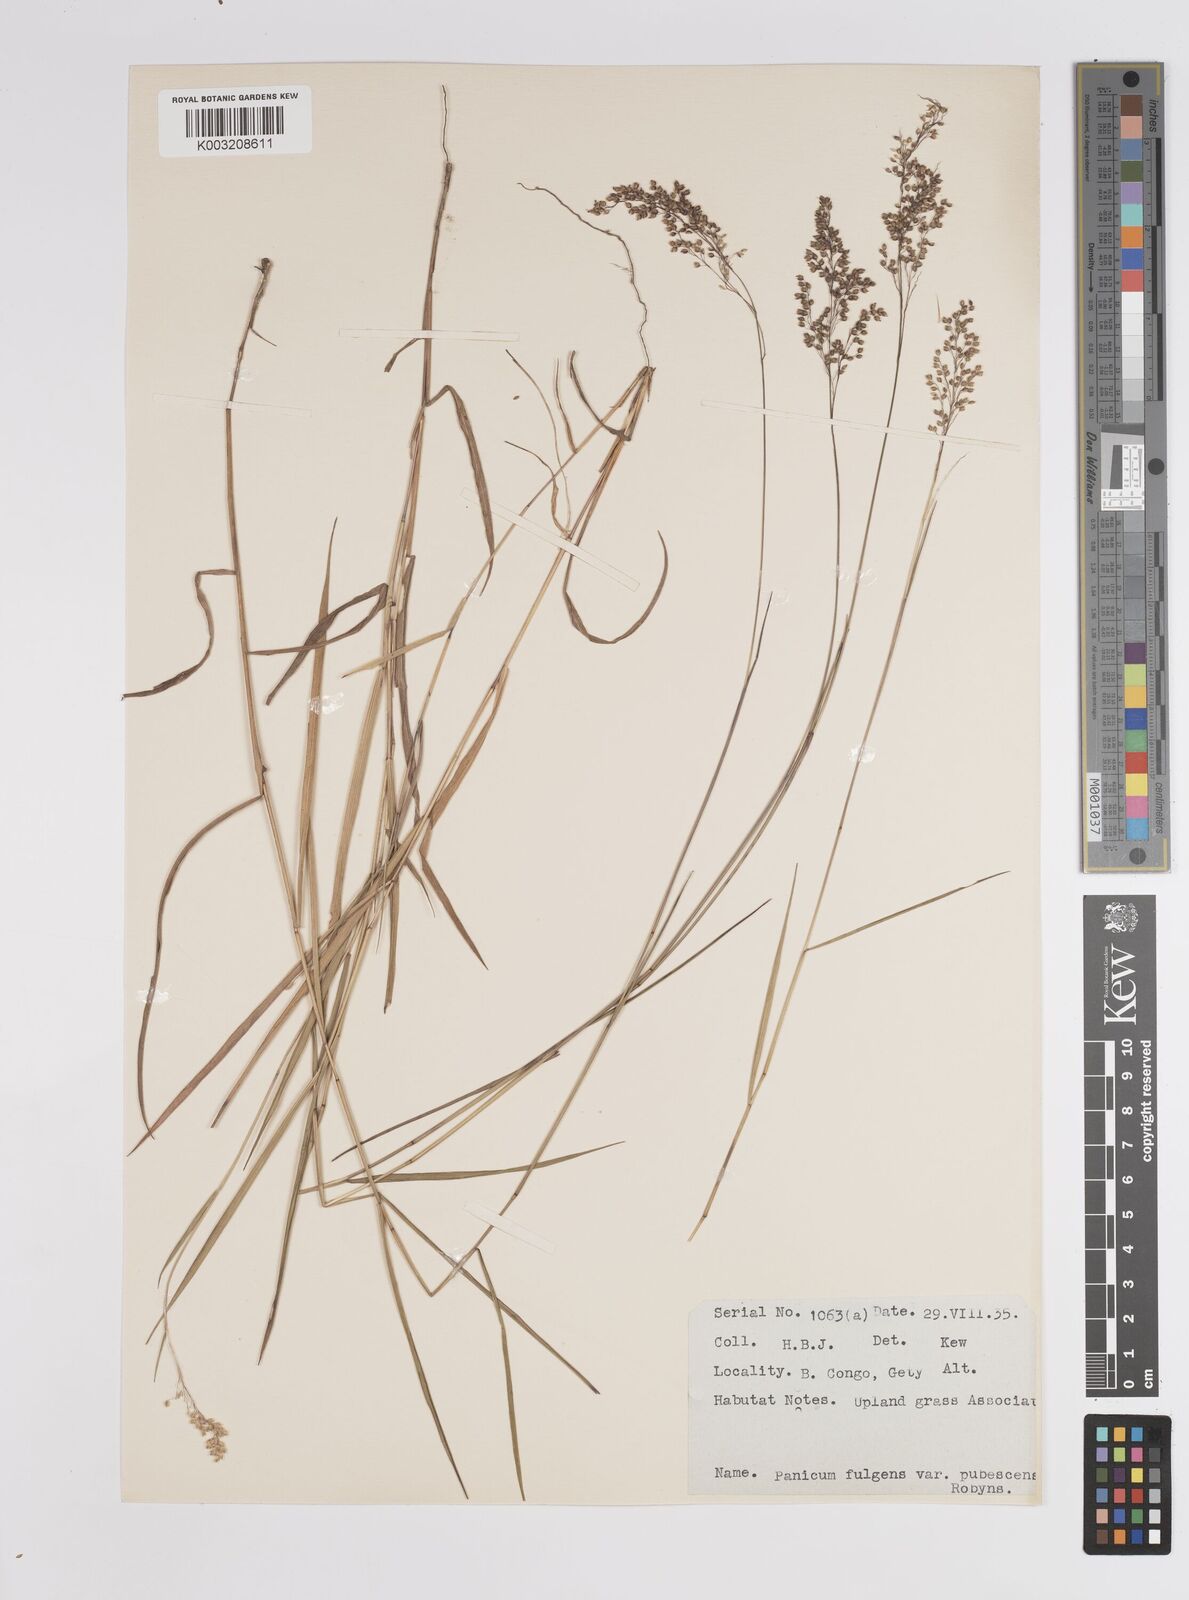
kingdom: Plantae
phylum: Tracheophyta
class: Liliopsida
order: Poales
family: Poaceae
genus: Trichanthecium
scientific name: Trichanthecium nervatum
